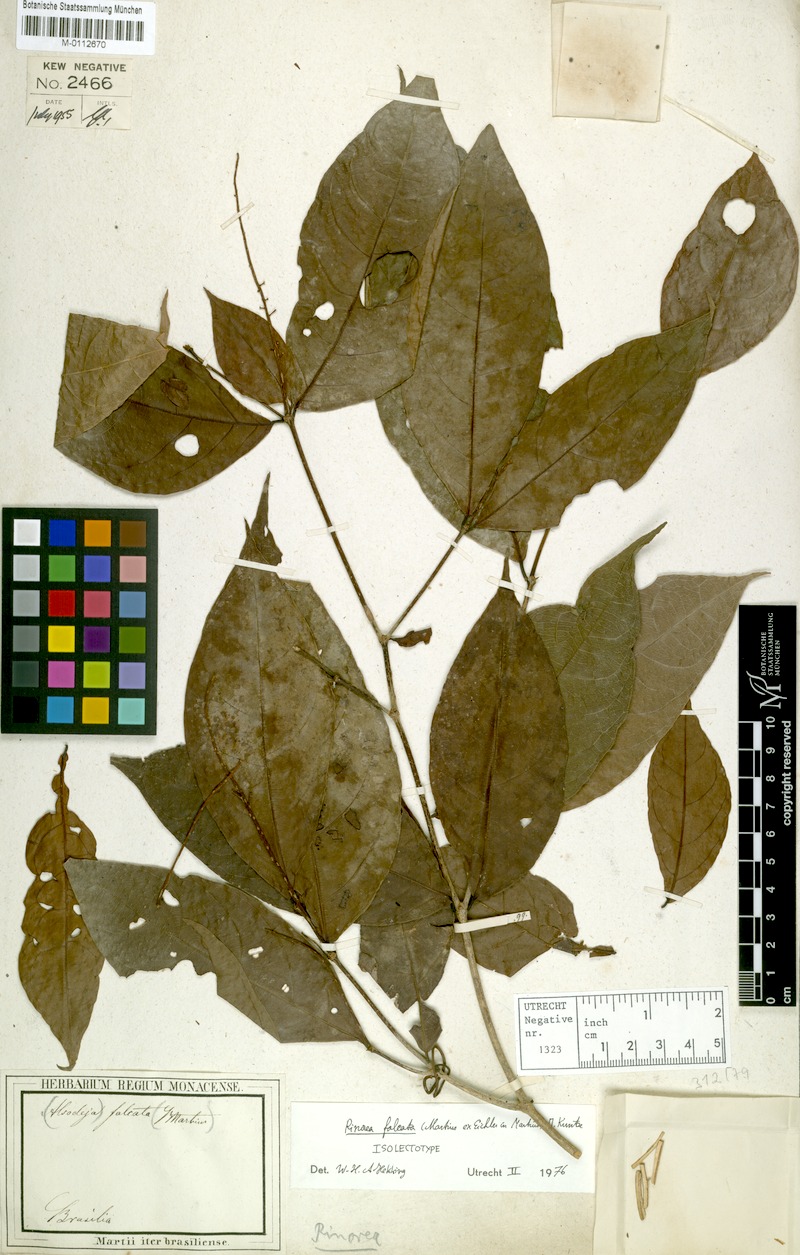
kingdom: Plantae
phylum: Tracheophyta
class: Magnoliopsida
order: Malpighiales
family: Violaceae
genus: Rinorea
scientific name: Rinorea falcata
